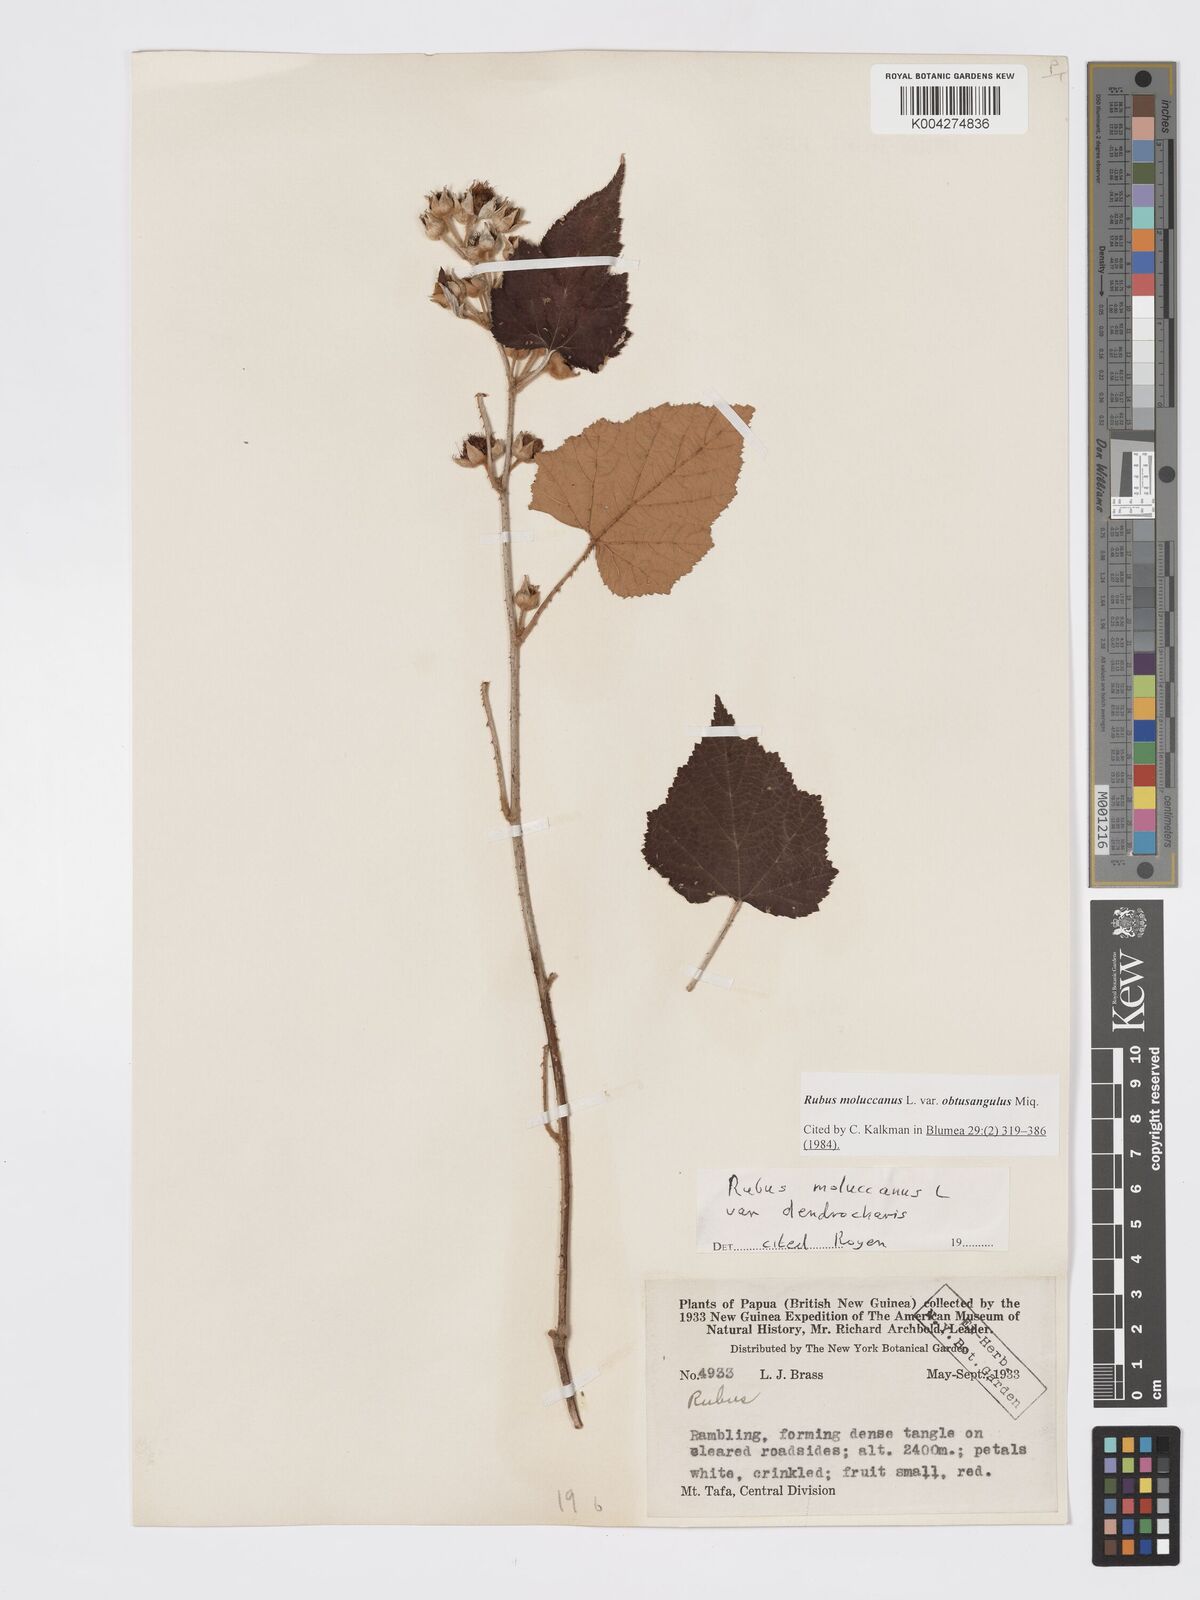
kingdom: Plantae
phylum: Tracheophyta
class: Magnoliopsida
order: Rosales
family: Rosaceae
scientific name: Rosaceae
